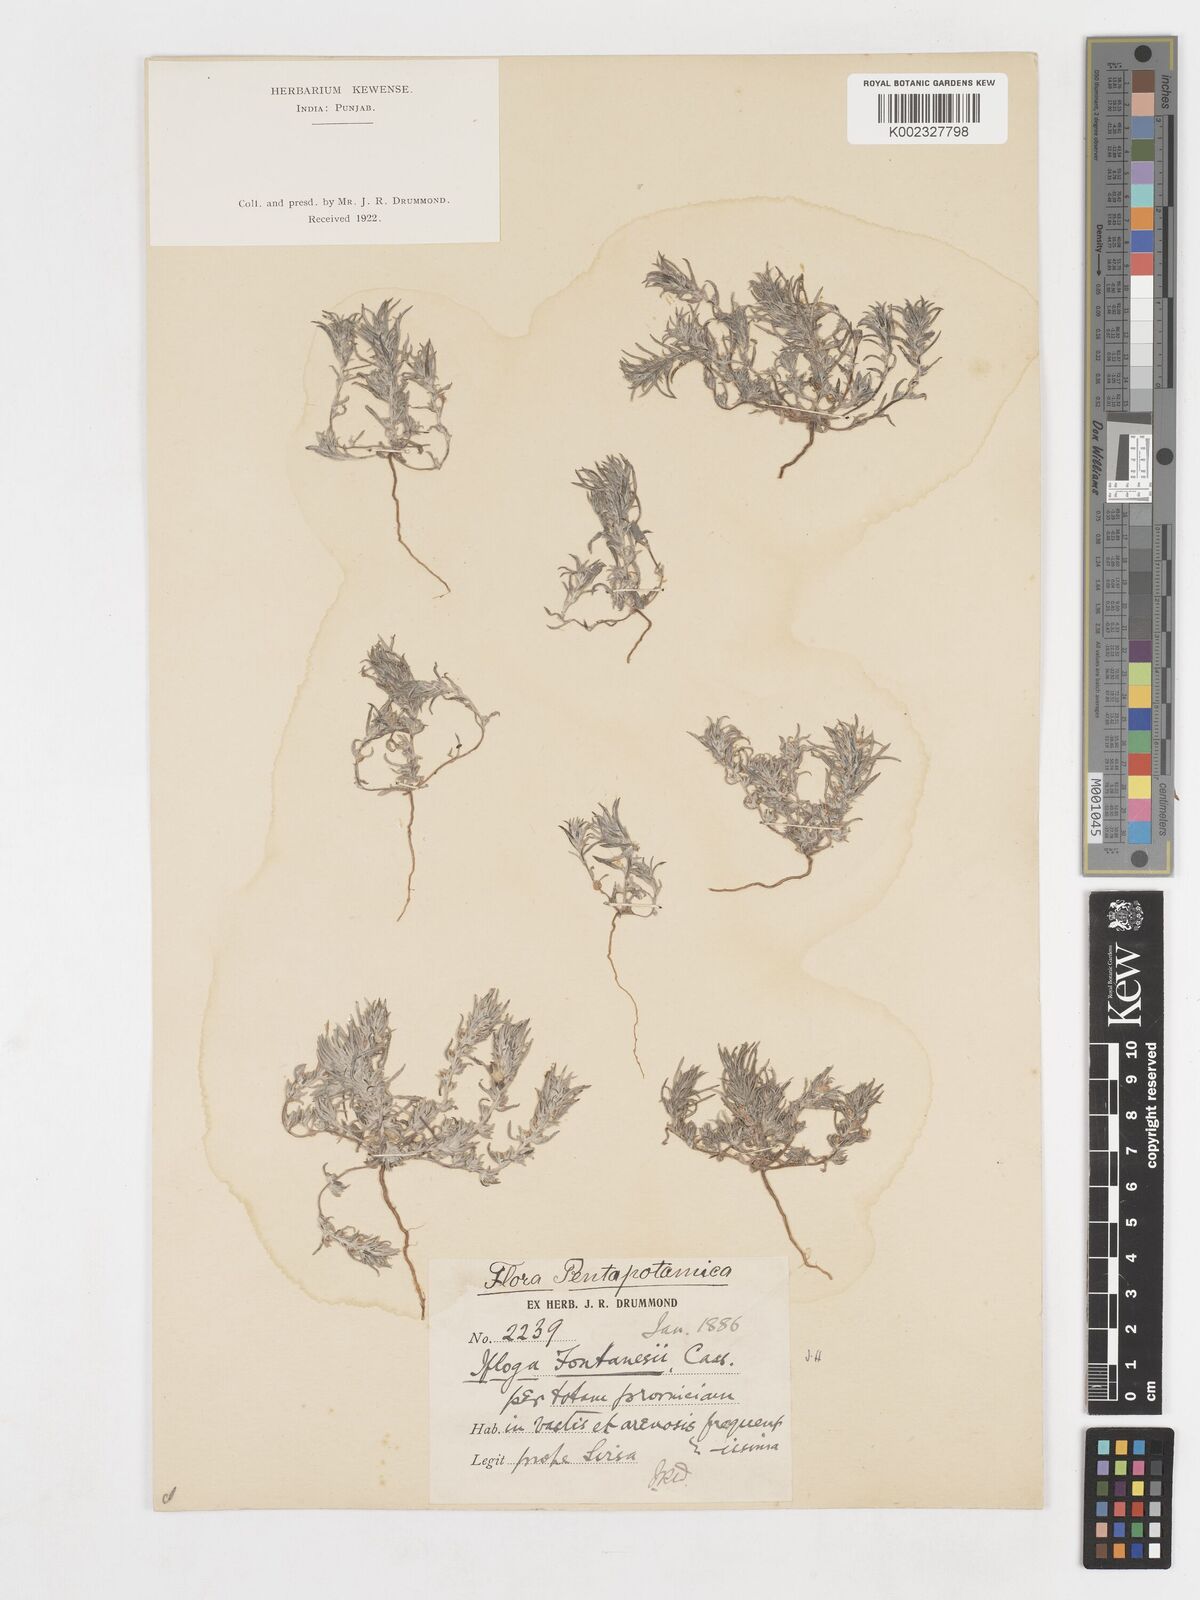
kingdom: Plantae
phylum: Tracheophyta
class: Magnoliopsida
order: Asterales
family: Asteraceae
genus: Ifloga
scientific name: Ifloga spicata
